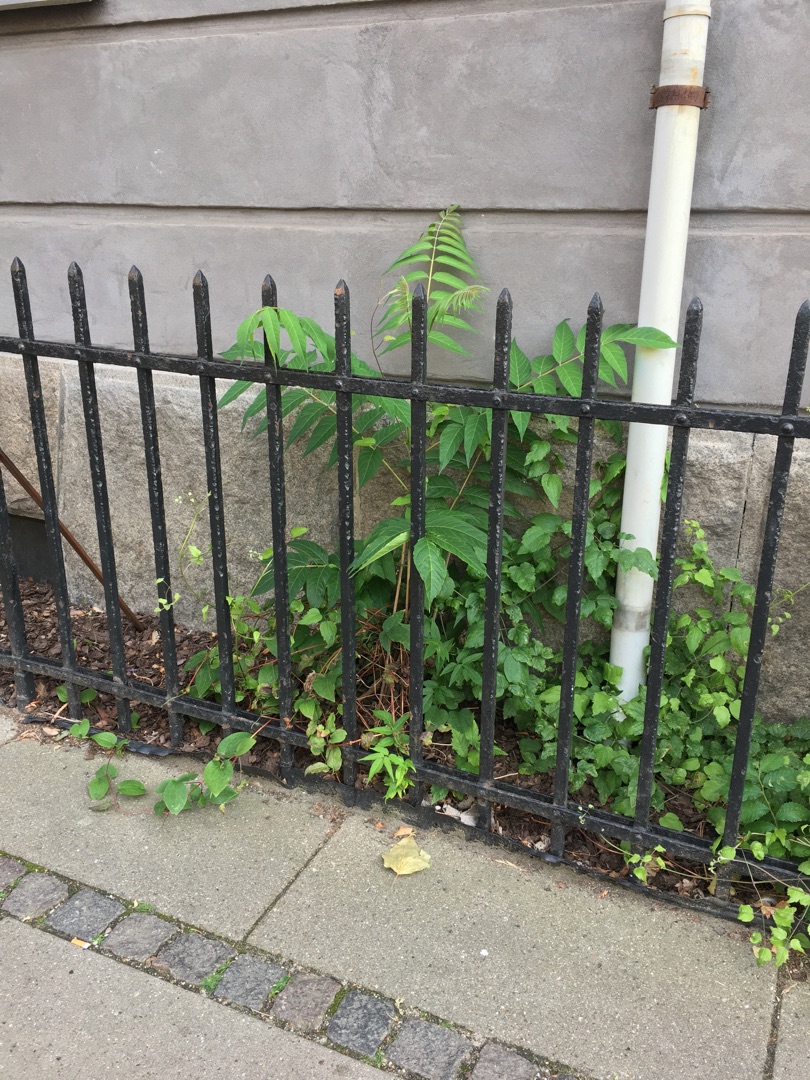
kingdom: Plantae
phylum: Tracheophyta
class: Magnoliopsida
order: Sapindales
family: Simaroubaceae
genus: Ailanthus
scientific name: Ailanthus altissima
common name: Skyrækker
